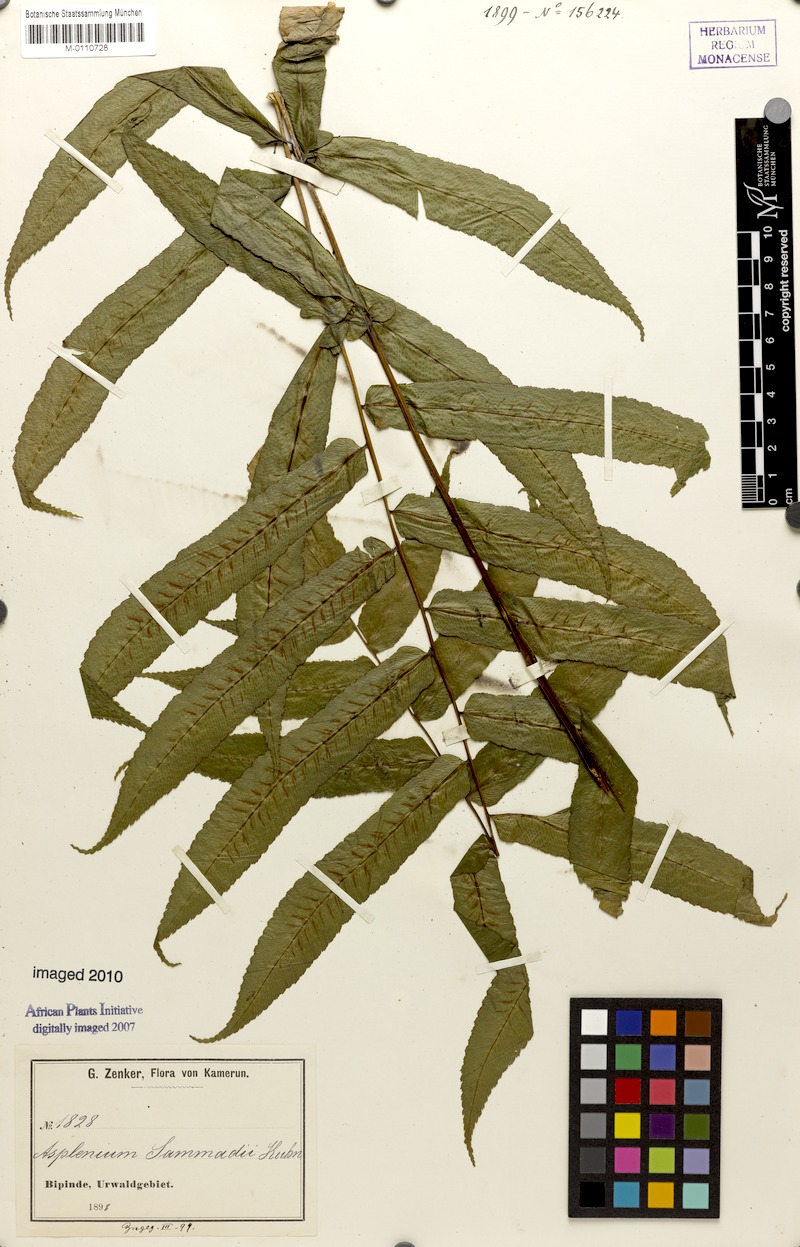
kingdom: Plantae
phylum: Tracheophyta
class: Polypodiopsida
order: Polypodiales
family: Athyriaceae
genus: Diplazium
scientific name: Diplazium sammatii
